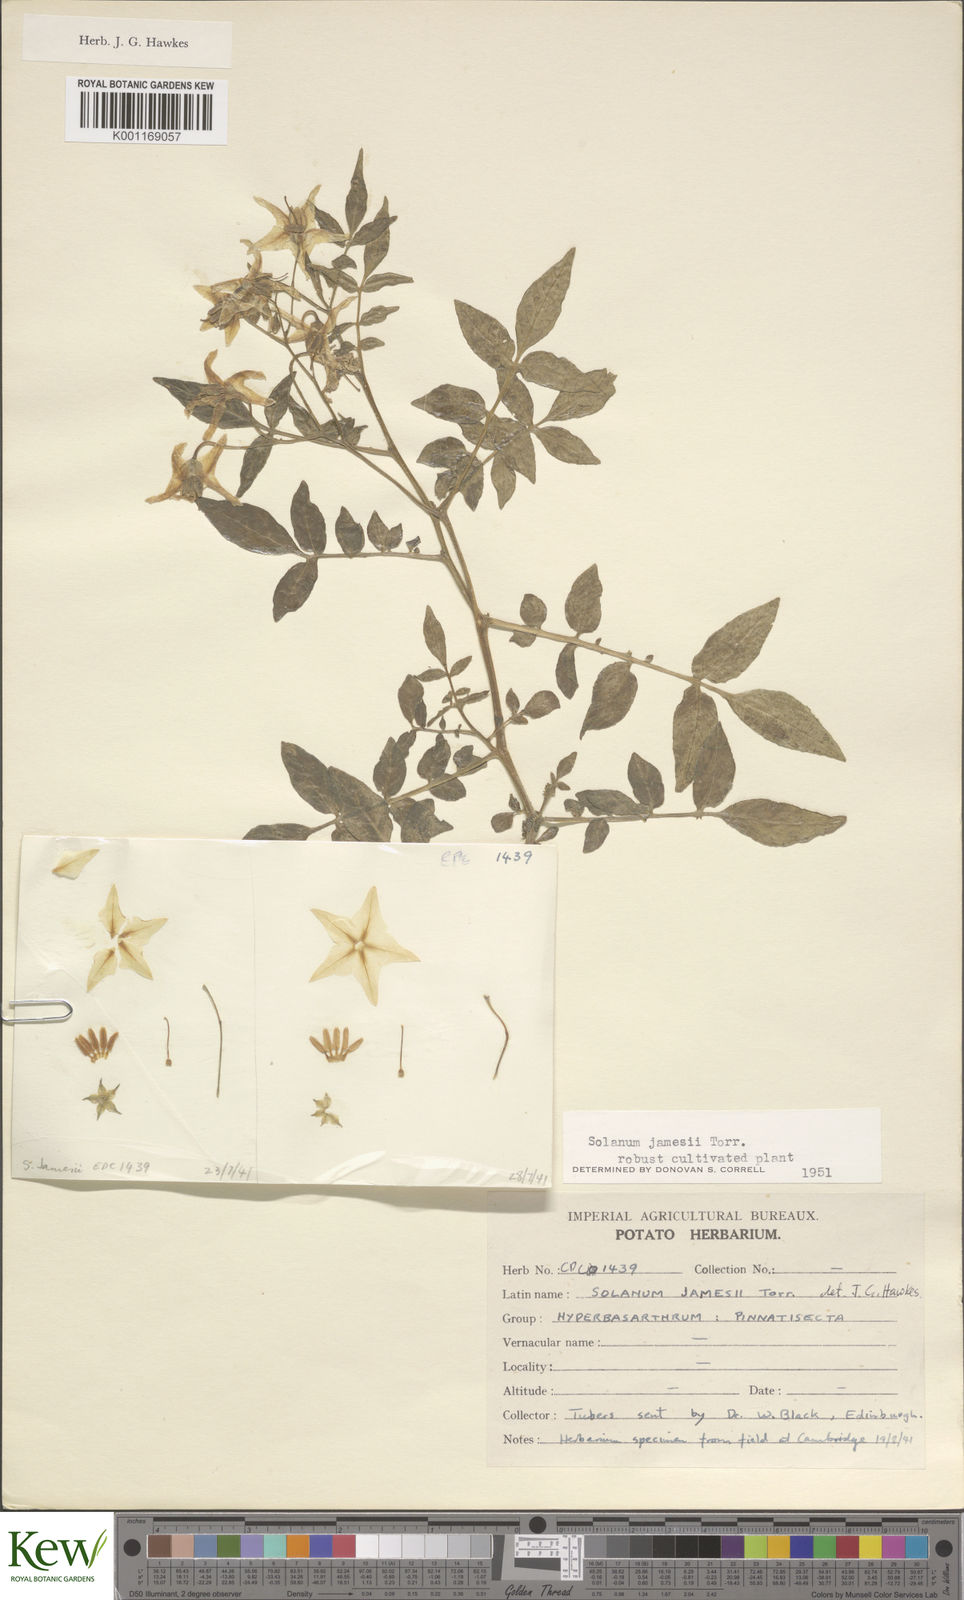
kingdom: Plantae
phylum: Tracheophyta
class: Magnoliopsida
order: Solanales
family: Solanaceae
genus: Solanum
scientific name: Solanum jamesii
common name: Wild potato
